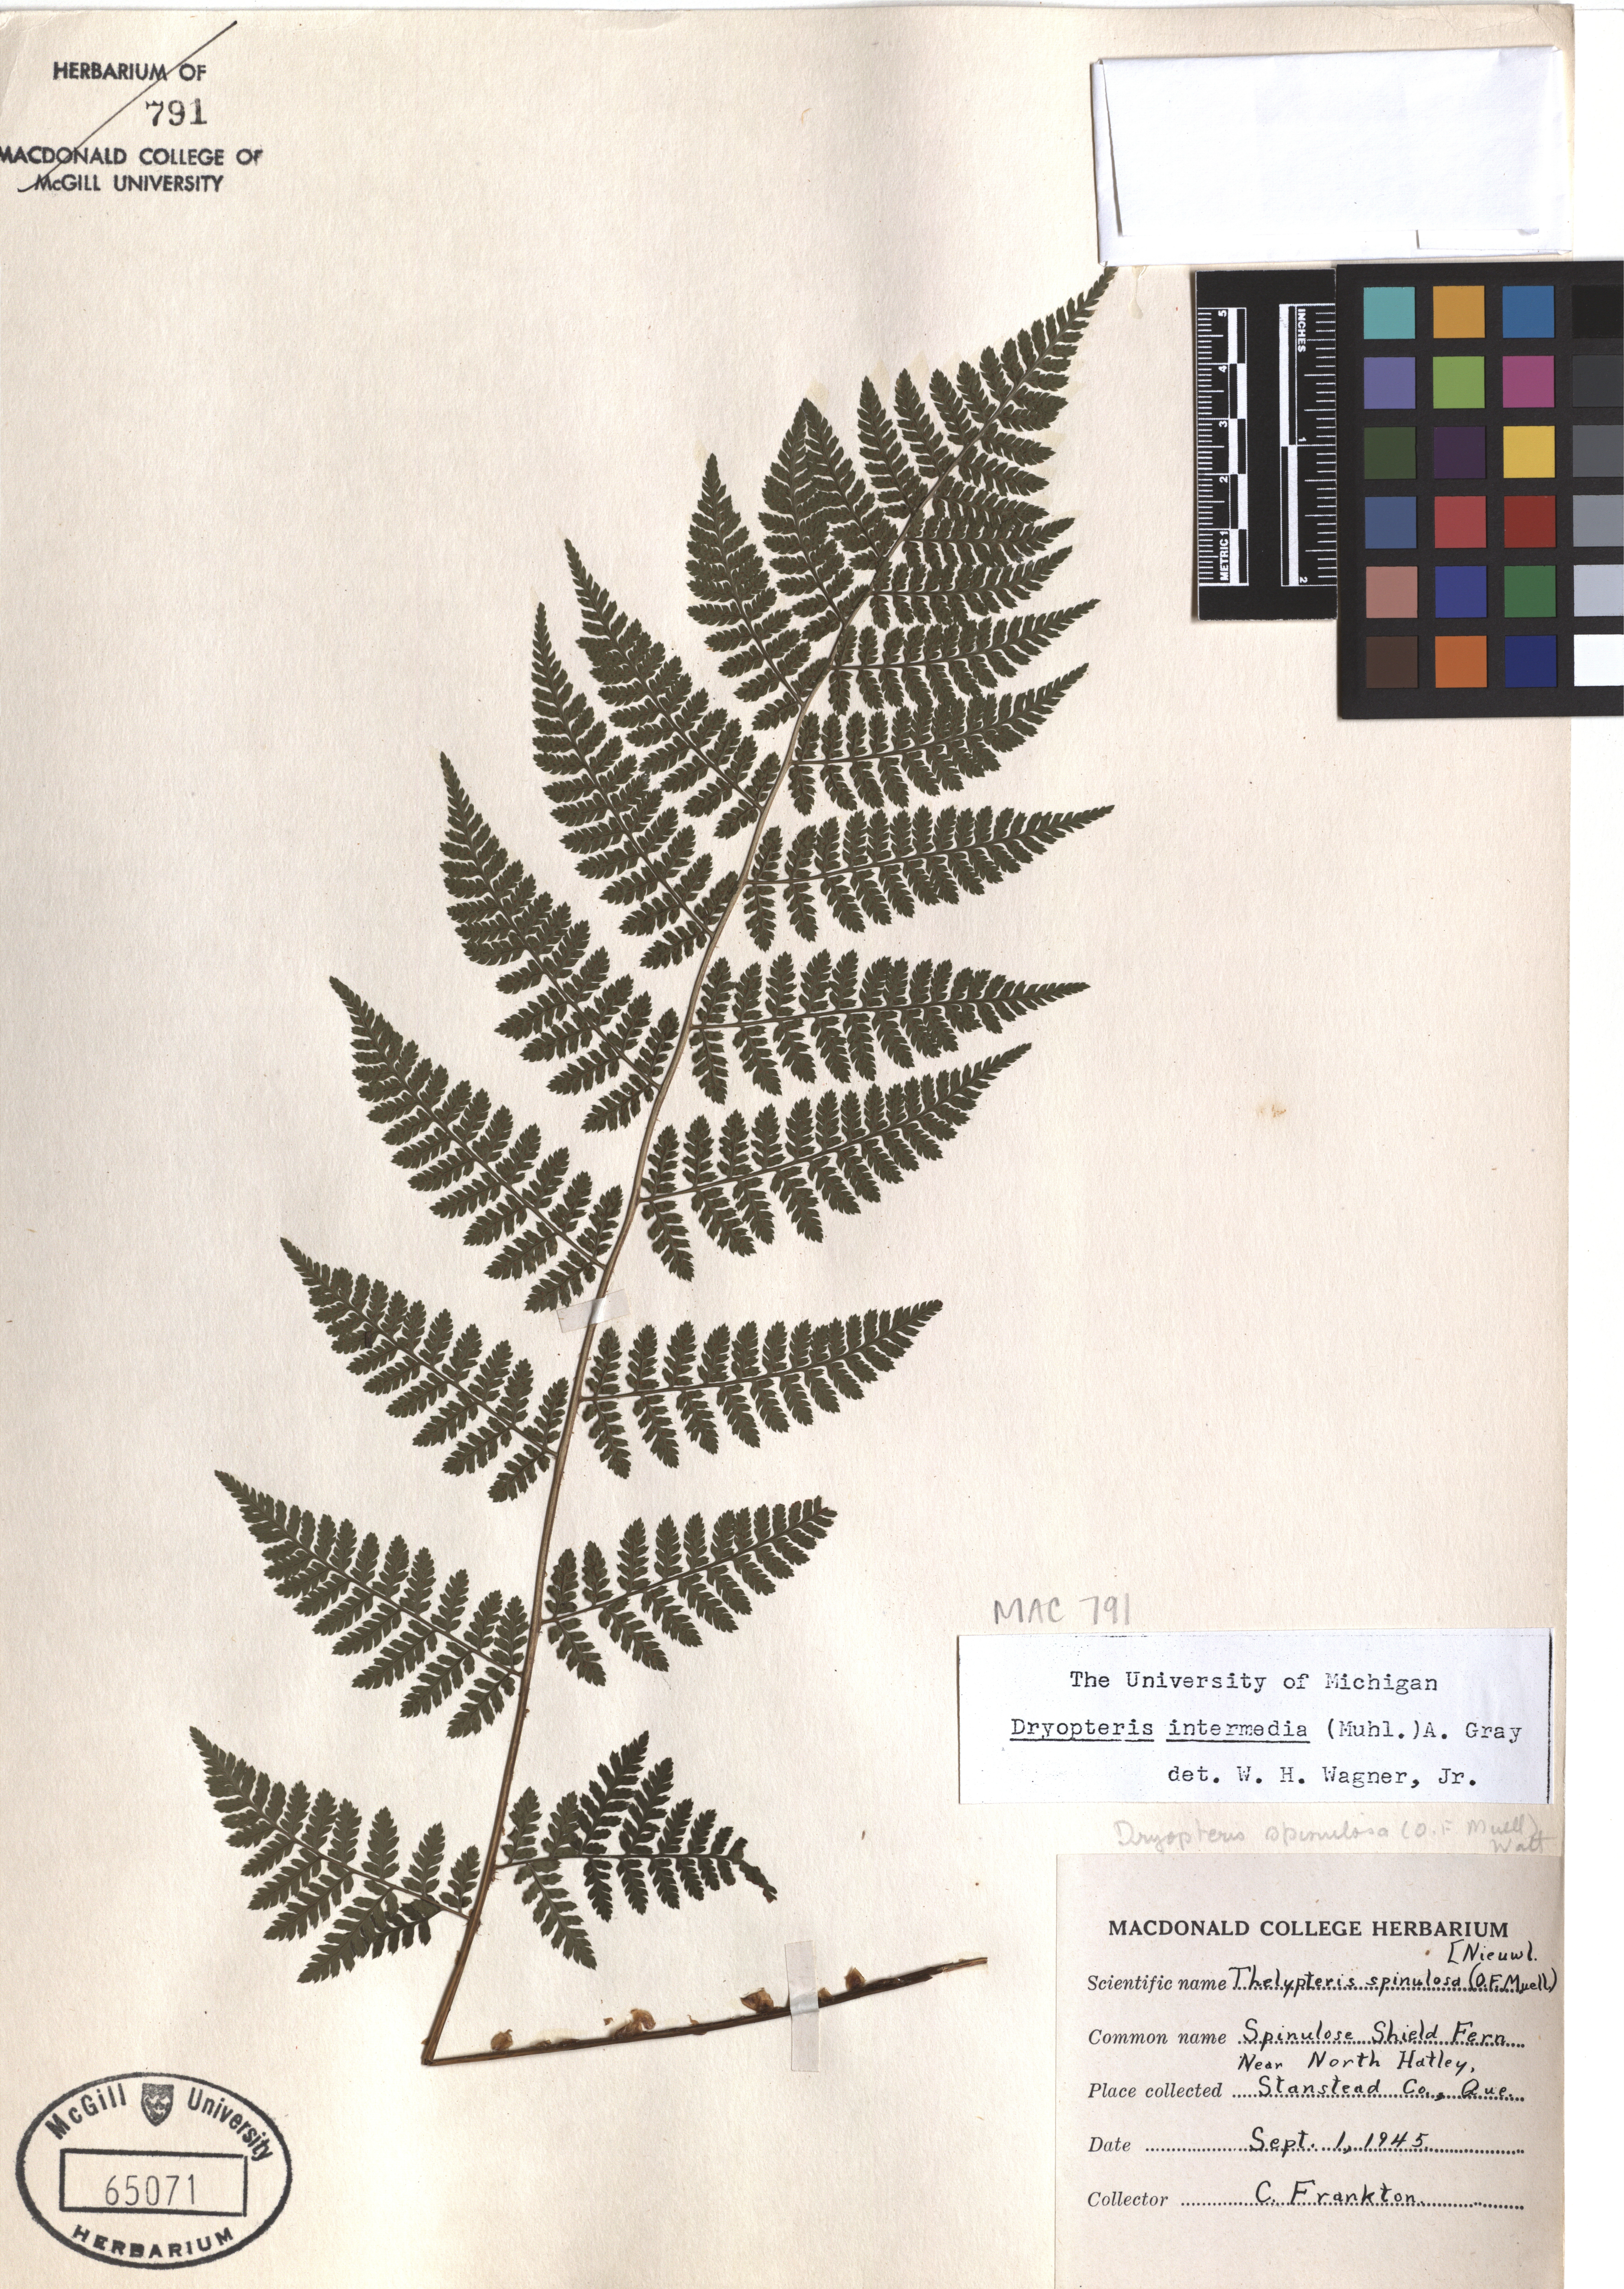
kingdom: Plantae
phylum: Tracheophyta
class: Polypodiopsida
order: Polypodiales
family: Dryopteridaceae
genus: Dryopteris
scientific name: Dryopteris intermedia
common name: Evergreen wood fern
